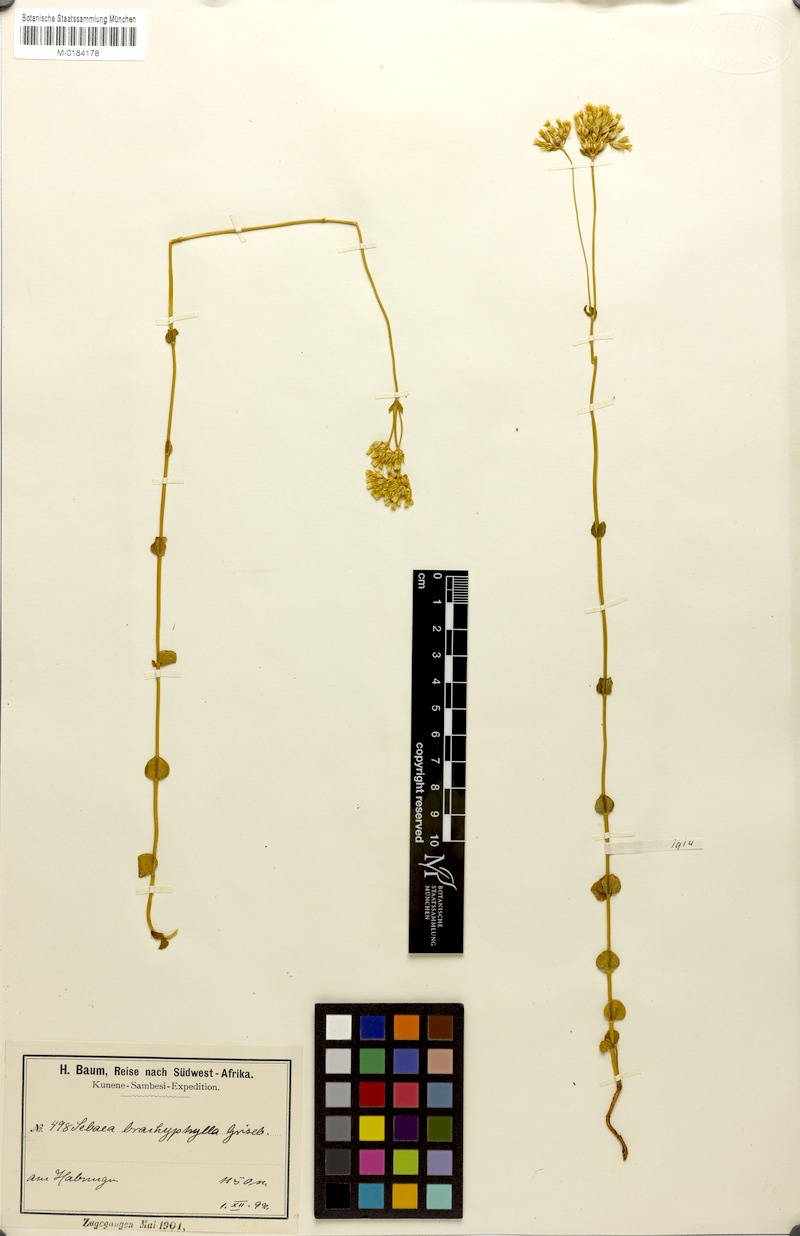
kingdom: Plantae
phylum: Tracheophyta
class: Magnoliopsida
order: Gentianales
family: Gentianaceae
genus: Sebaea
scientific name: Sebaea brachyphylla
